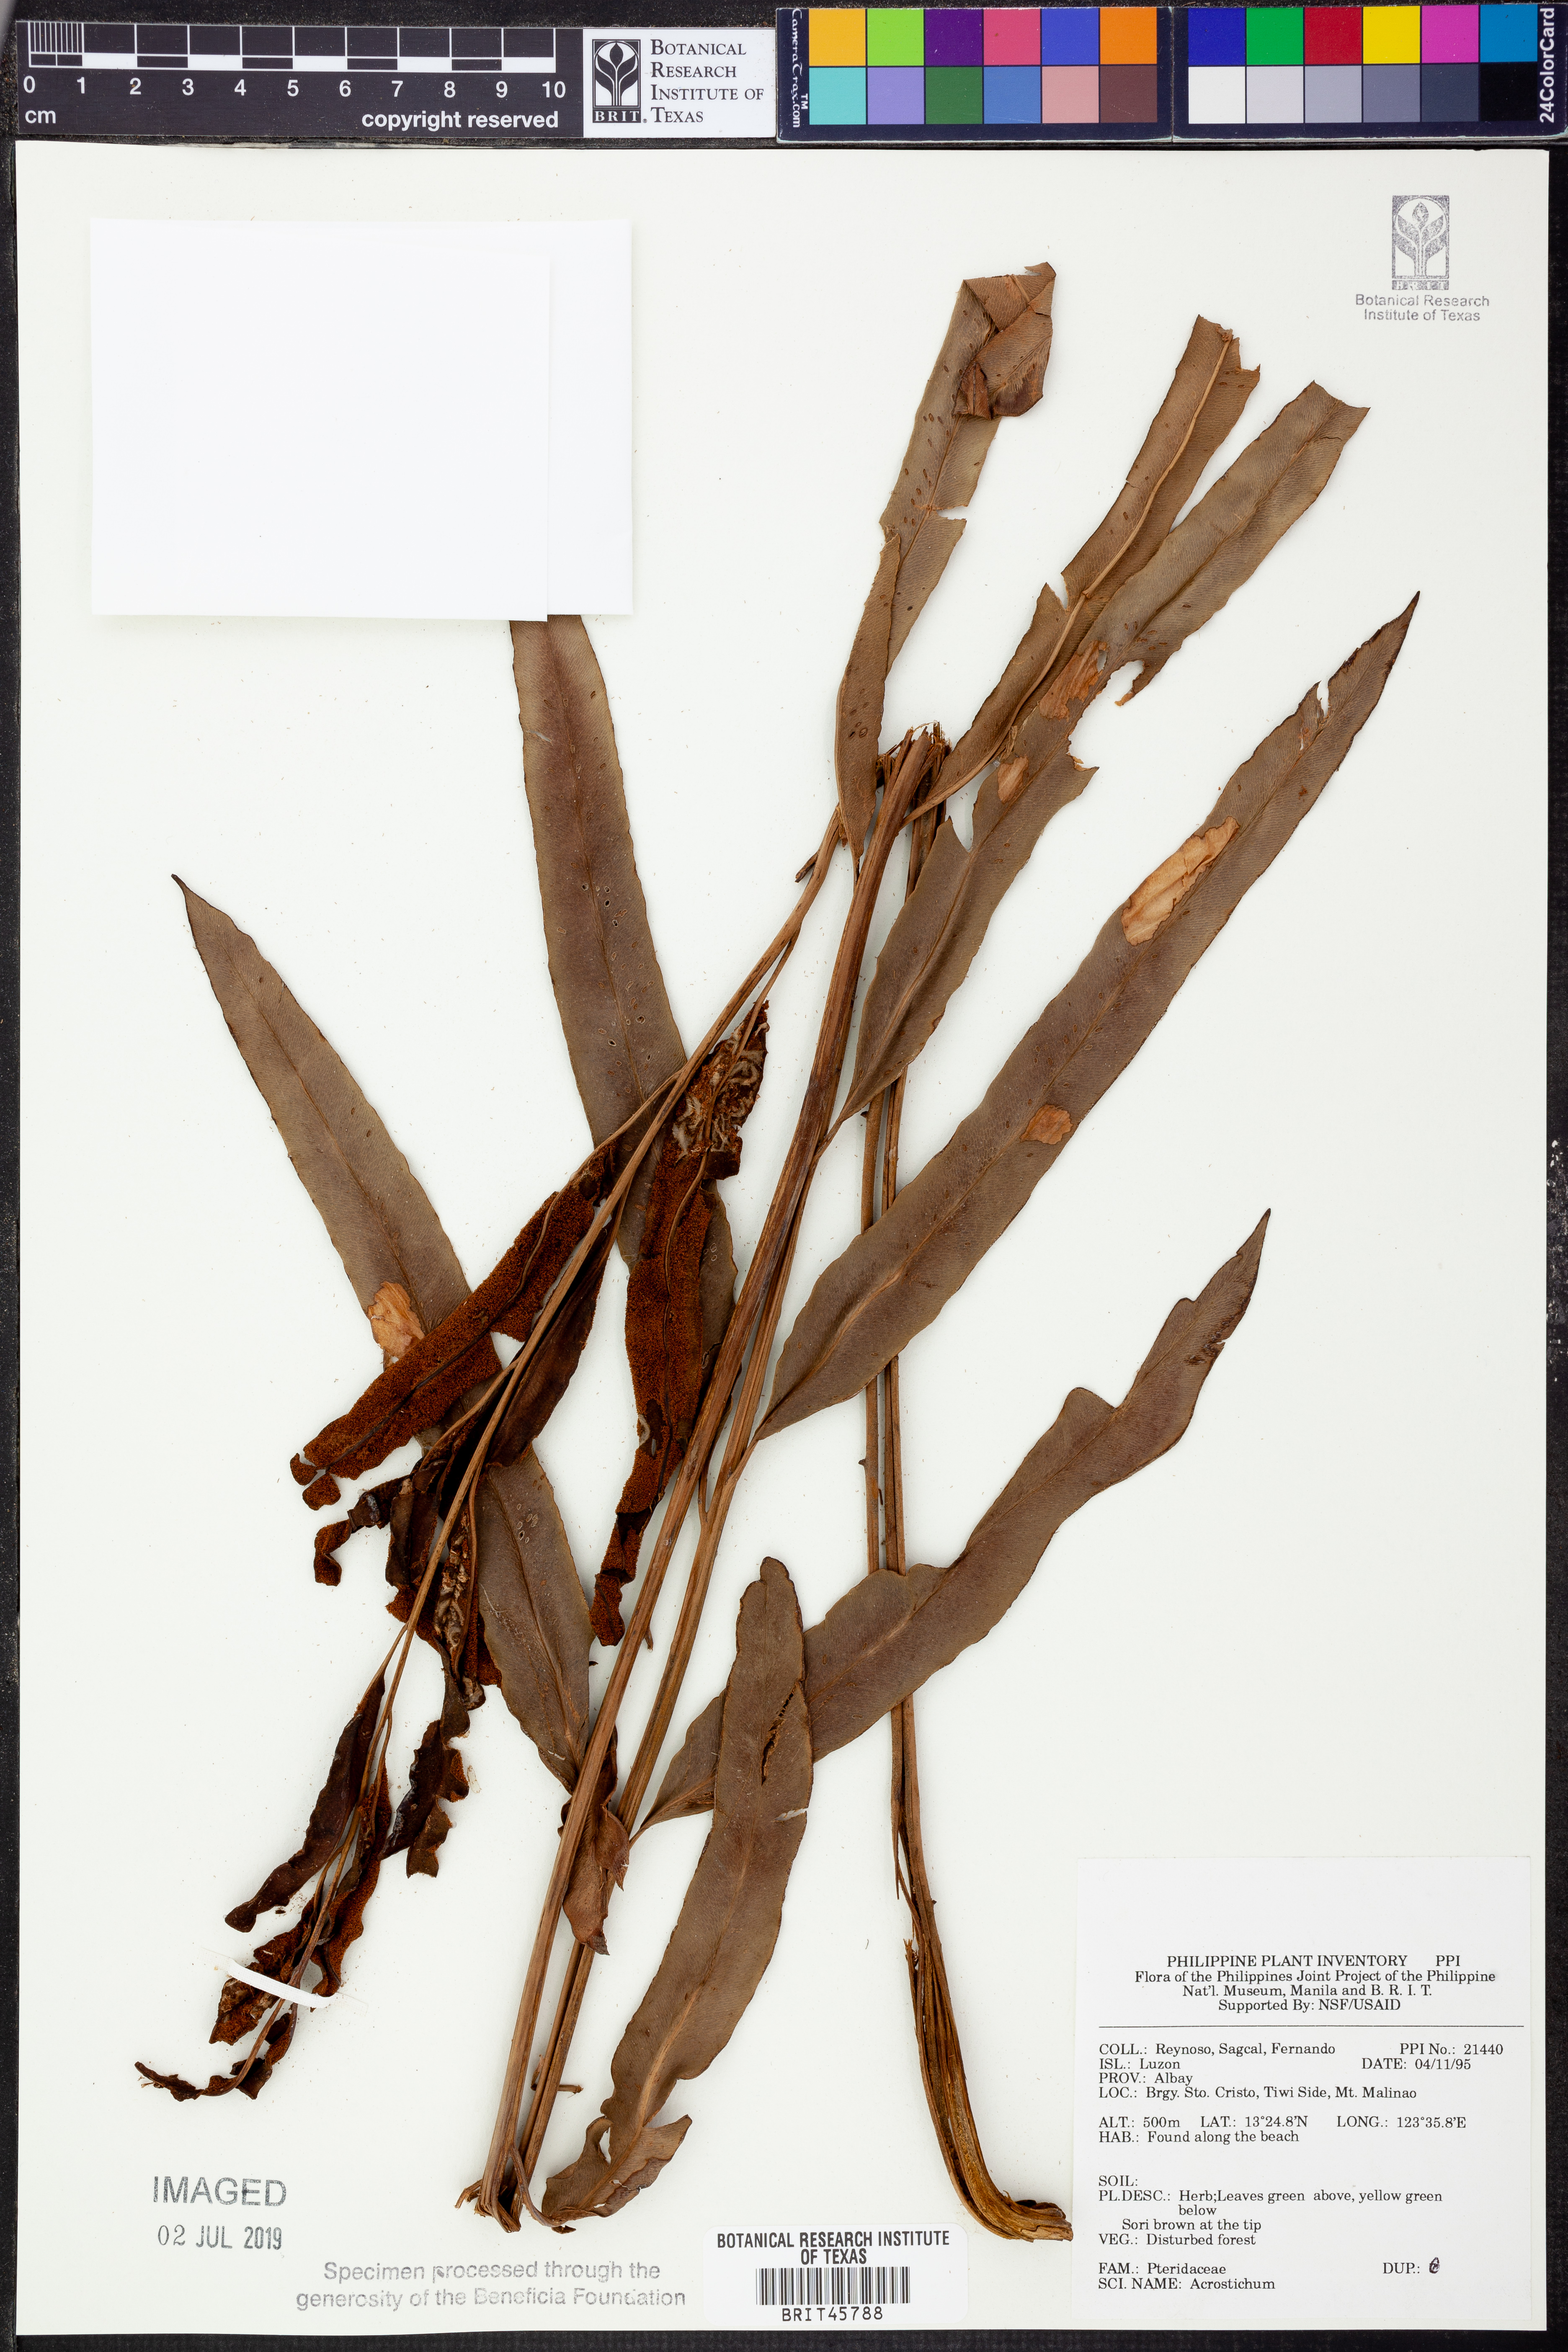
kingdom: Plantae
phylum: Tracheophyta
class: Polypodiopsida
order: Polypodiales
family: Pteridaceae
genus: Acrostichum
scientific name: Acrostichum
